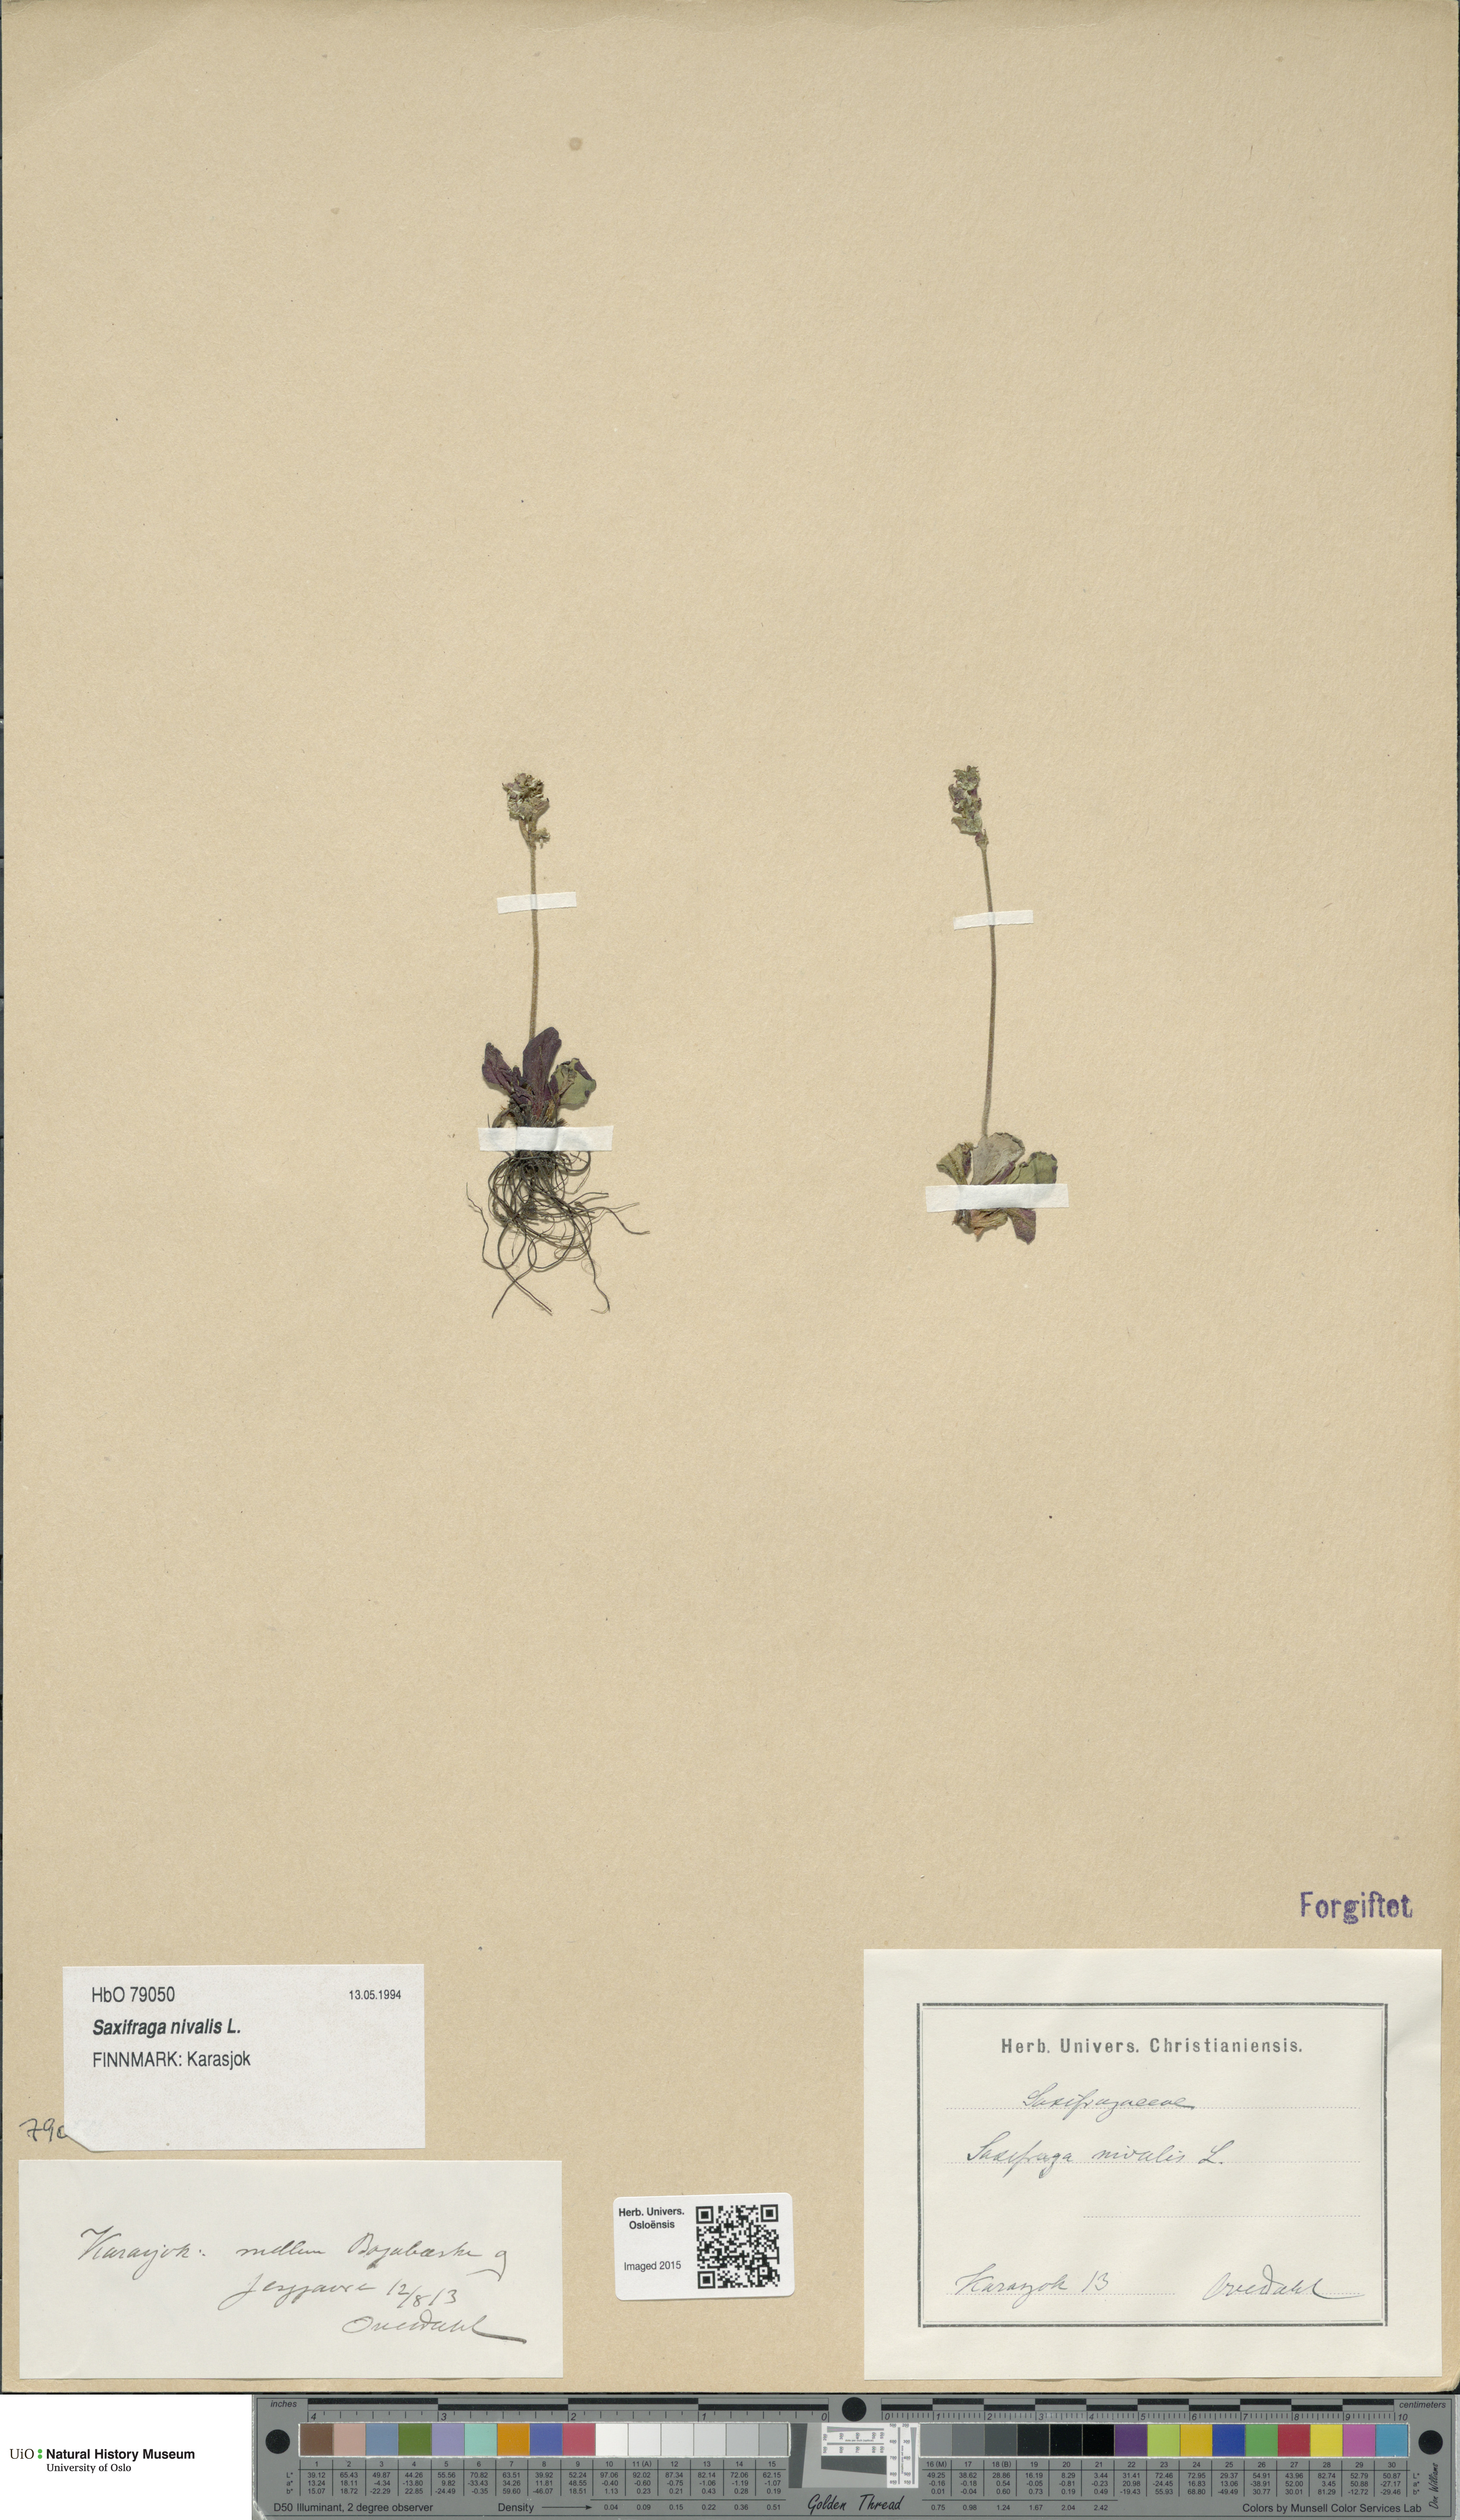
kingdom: Plantae
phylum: Tracheophyta
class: Magnoliopsida
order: Saxifragales
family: Saxifragaceae
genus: Micranthes
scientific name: Micranthes nivalis
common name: Alpine saxifrage
